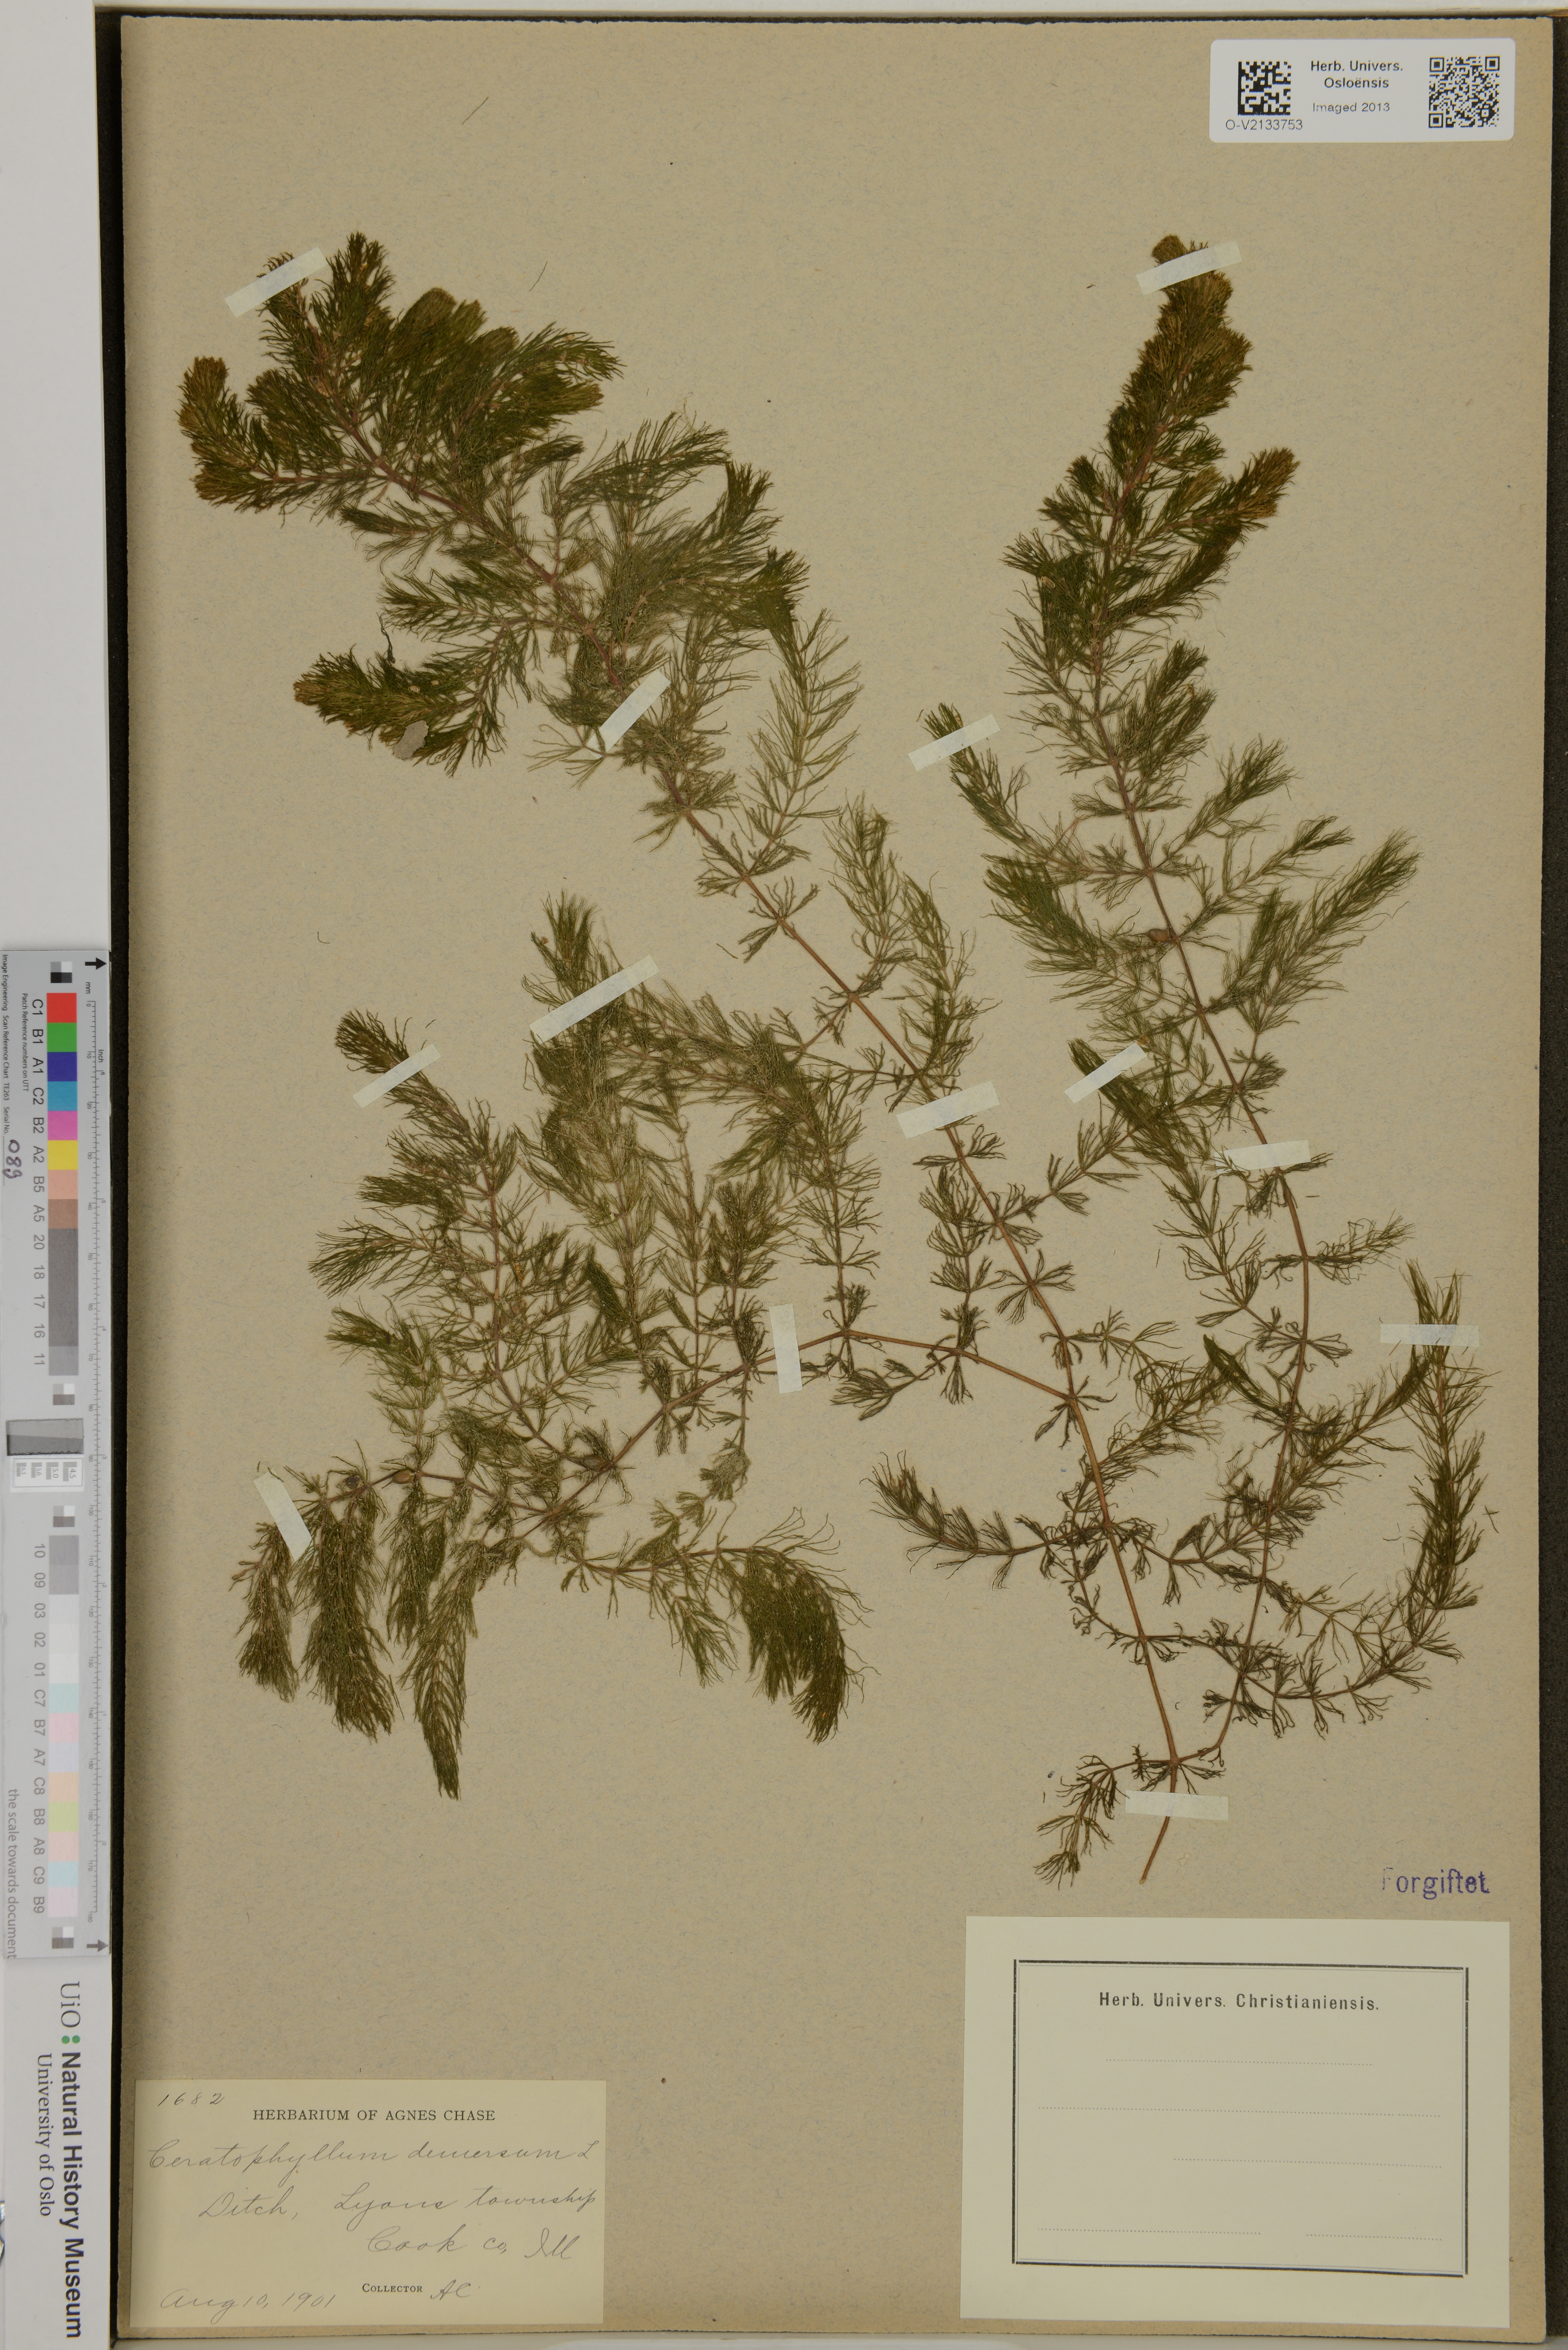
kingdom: Plantae
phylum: Tracheophyta
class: Magnoliopsida
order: Ceratophyllales
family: Ceratophyllaceae
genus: Ceratophyllum
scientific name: Ceratophyllum demersum
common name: Rigid hornwort
